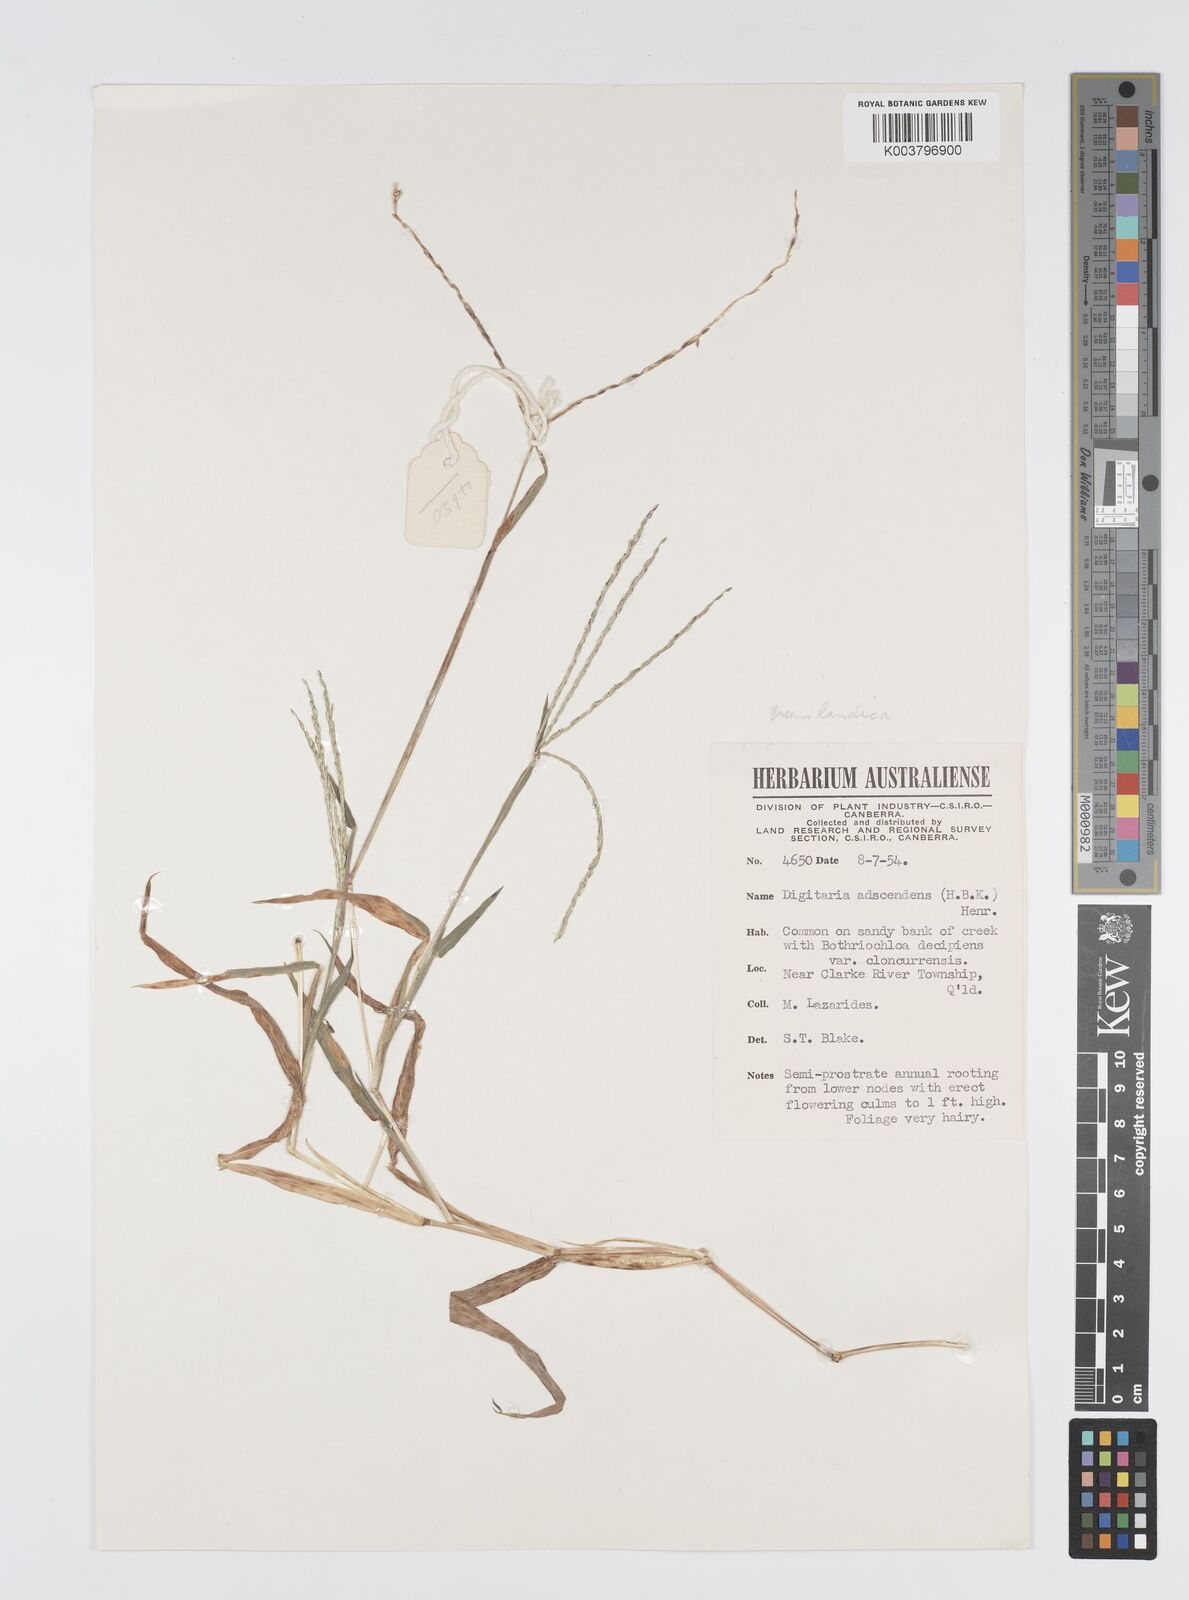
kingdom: Plantae
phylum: Tracheophyta
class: Liliopsida
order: Poales
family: Poaceae
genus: Digitaria
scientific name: Digitaria bicornis
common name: Asian crabgrass
